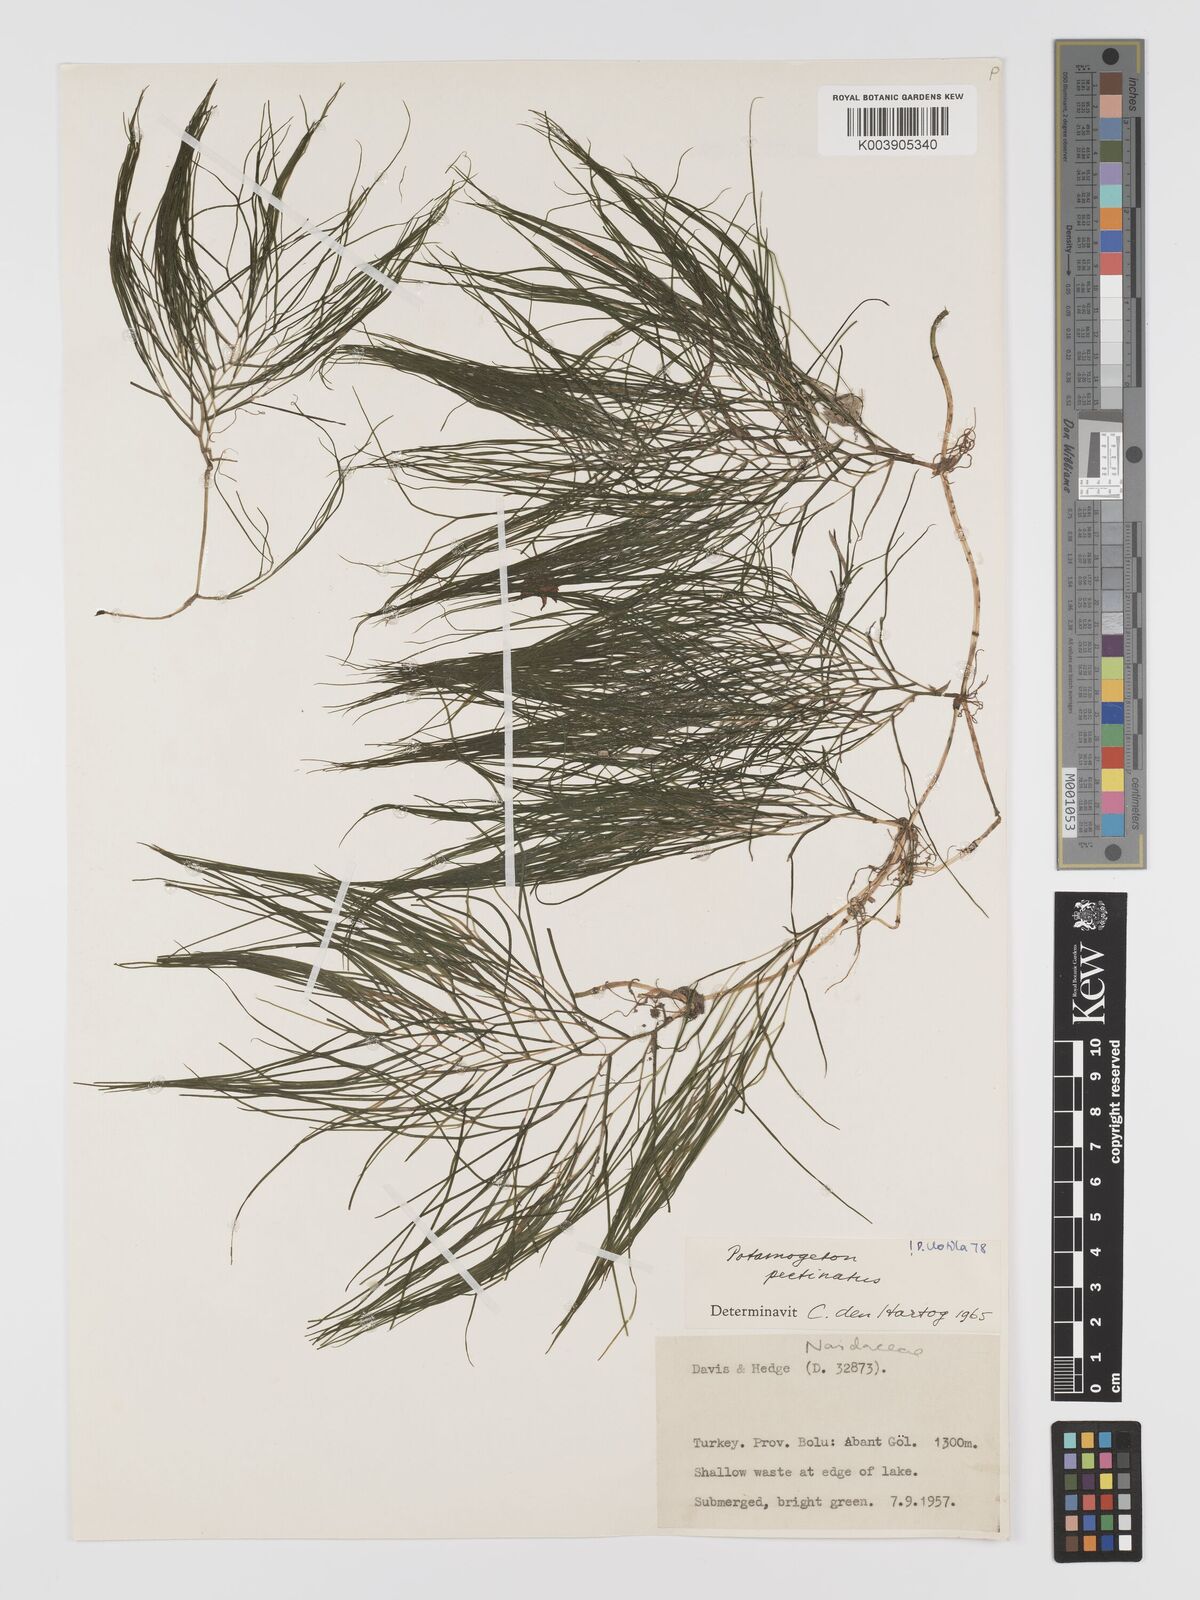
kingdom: Plantae
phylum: Tracheophyta
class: Liliopsida
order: Alismatales
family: Potamogetonaceae
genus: Stuckenia
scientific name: Stuckenia pectinata
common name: Sago pondweed
